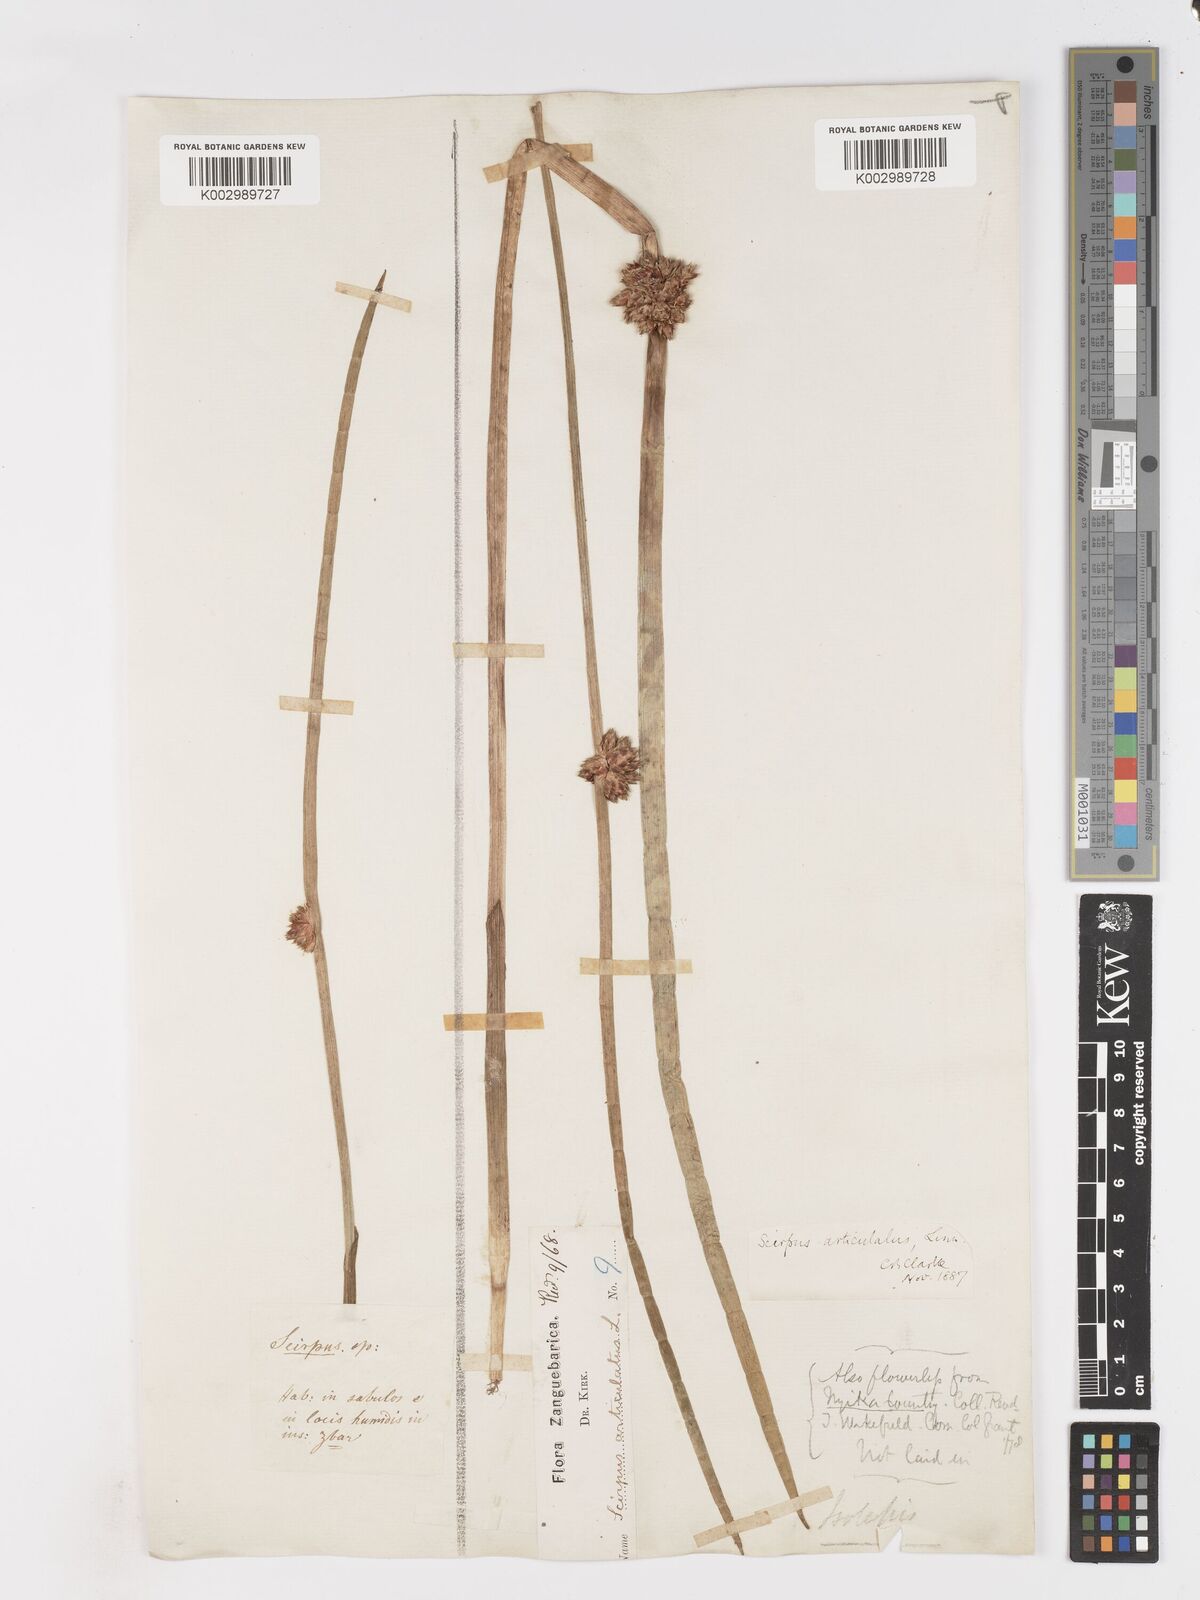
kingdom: Plantae
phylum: Tracheophyta
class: Liliopsida
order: Poales
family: Cyperaceae
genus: Schoenoplectiella
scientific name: Schoenoplectiella articulata
